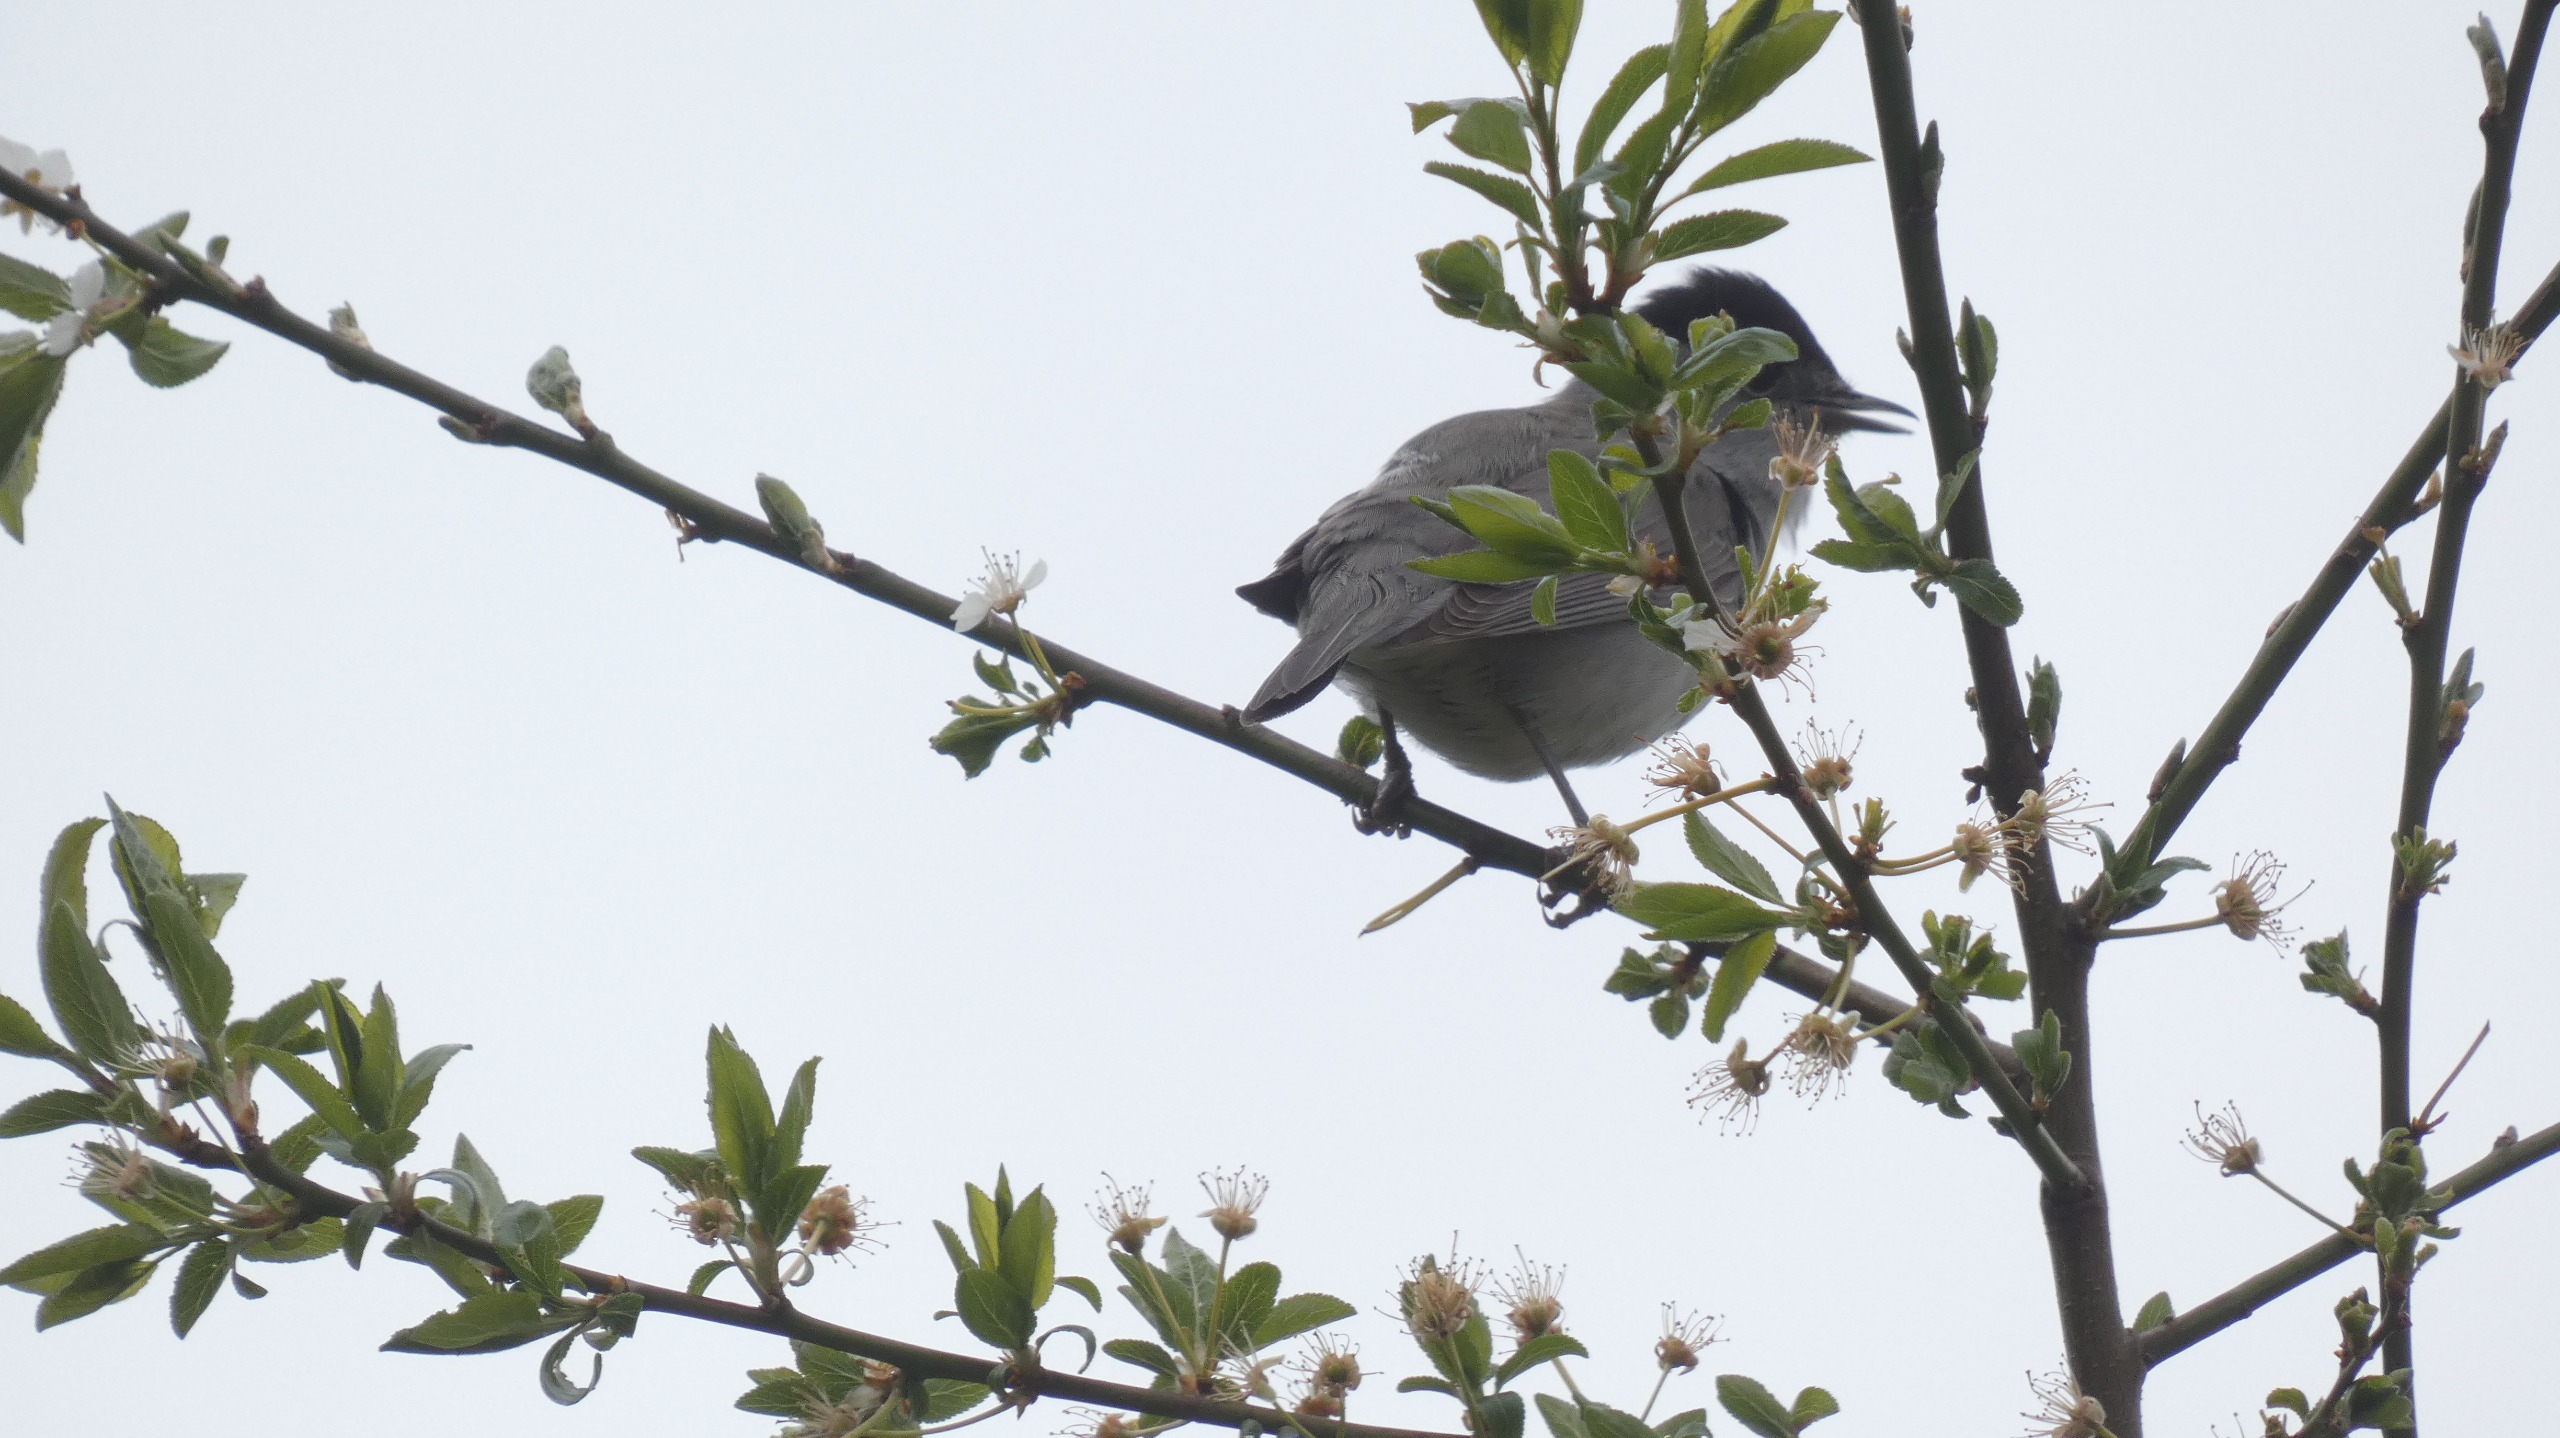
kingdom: Animalia
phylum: Chordata
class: Aves
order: Passeriformes
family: Sylviidae
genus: Sylvia
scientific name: Sylvia atricapilla
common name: Munk
